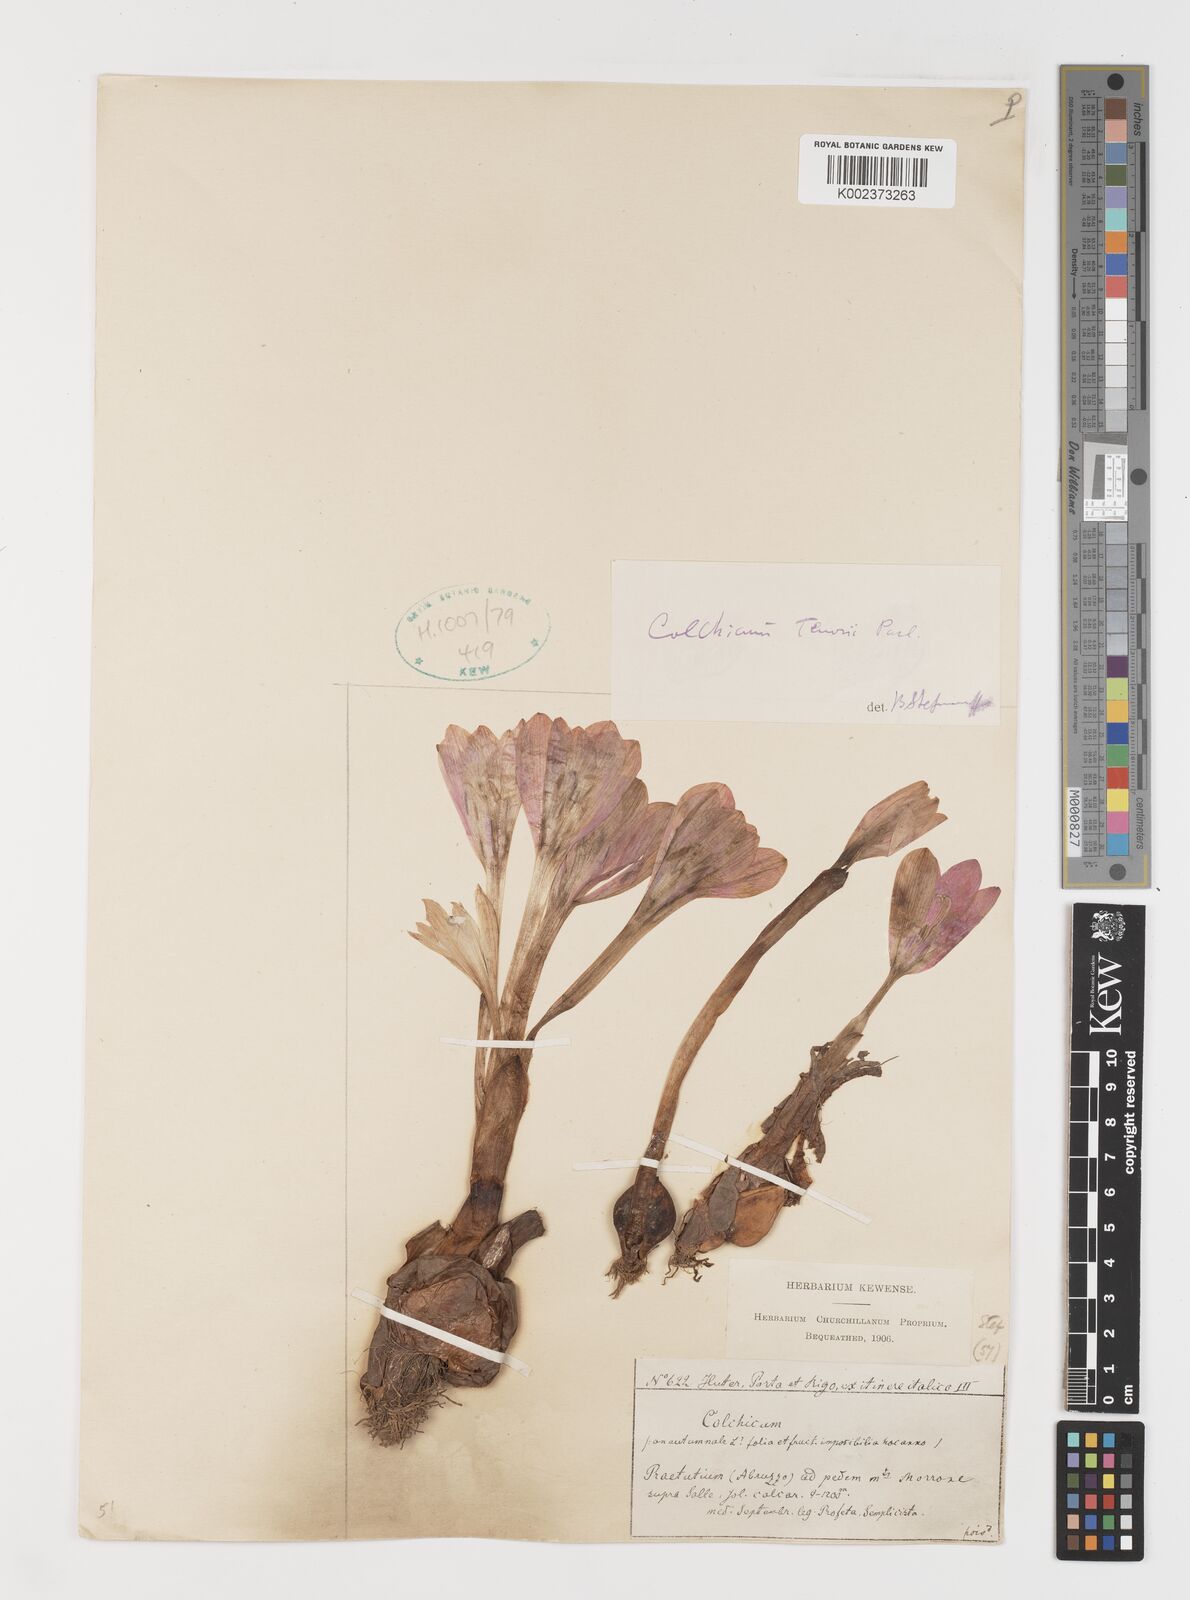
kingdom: Plantae
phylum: Tracheophyta
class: Liliopsida
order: Liliales
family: Colchicaceae
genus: Colchicum
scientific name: Colchicum cilicicum
